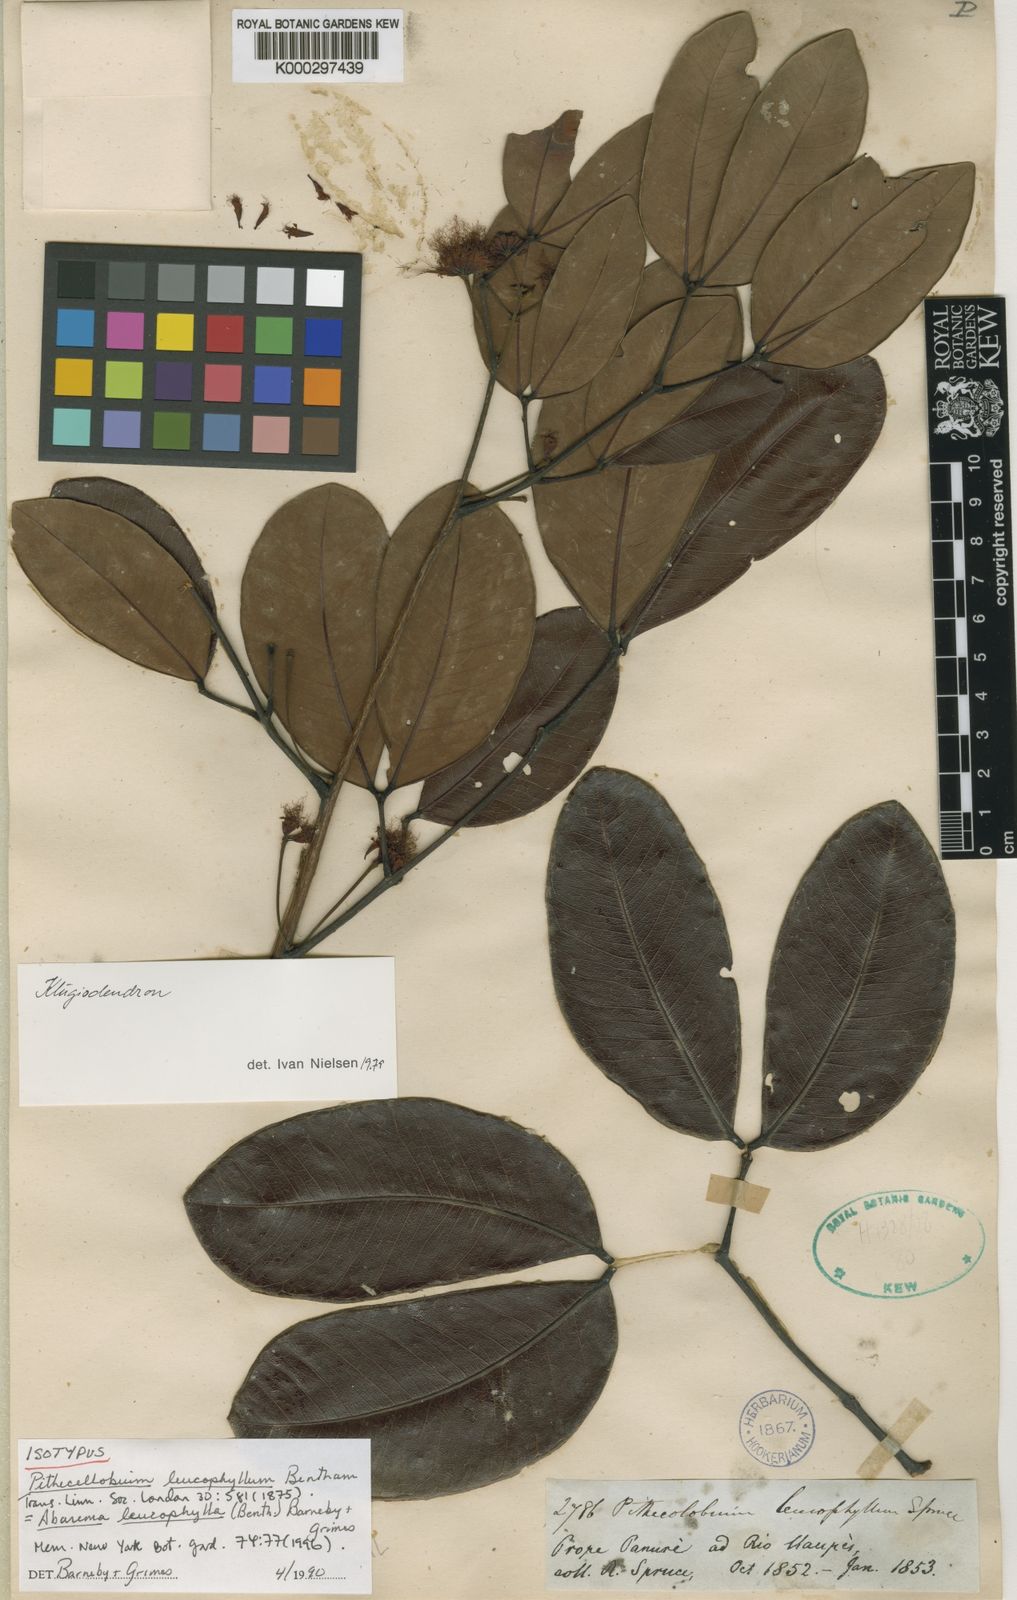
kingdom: Plantae
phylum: Tracheophyta
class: Magnoliopsida
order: Fabales
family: Fabaceae
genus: Jupunba
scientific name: Jupunba leucophylla
